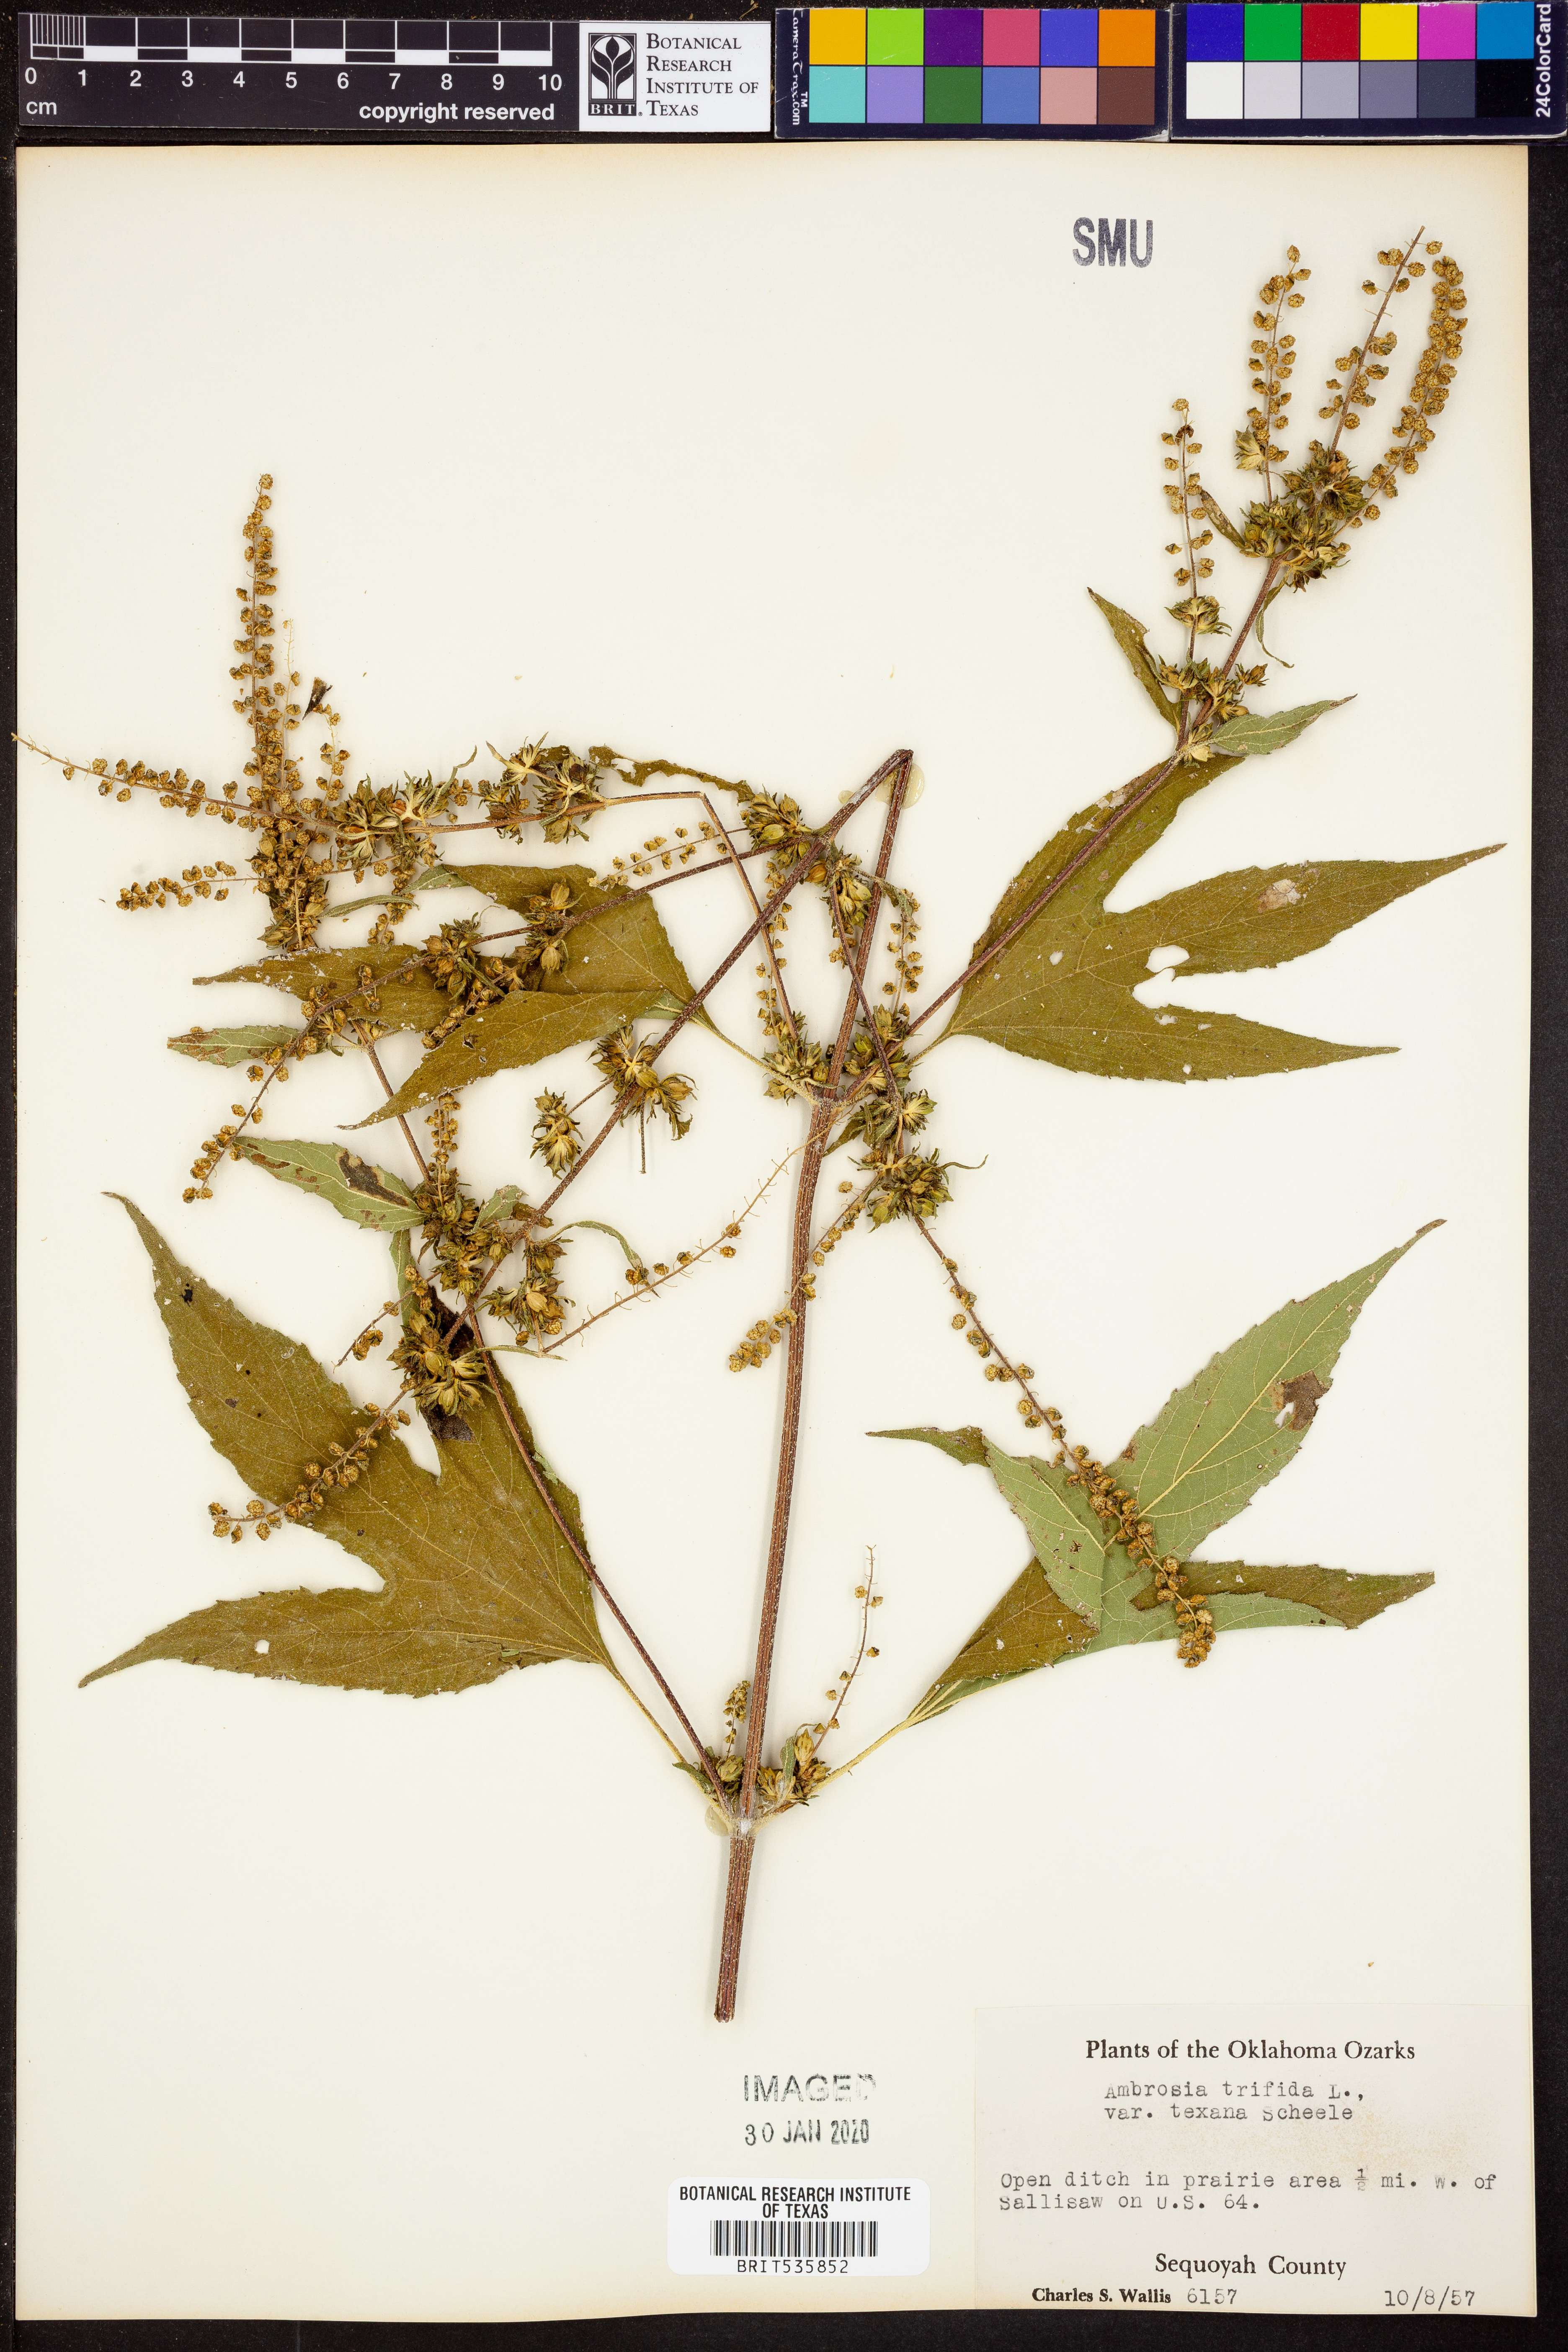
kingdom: Plantae
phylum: Tracheophyta
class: Magnoliopsida
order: Asterales
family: Asteraceae
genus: Ambrosia
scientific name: Ambrosia trifida
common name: Giant ragweed
